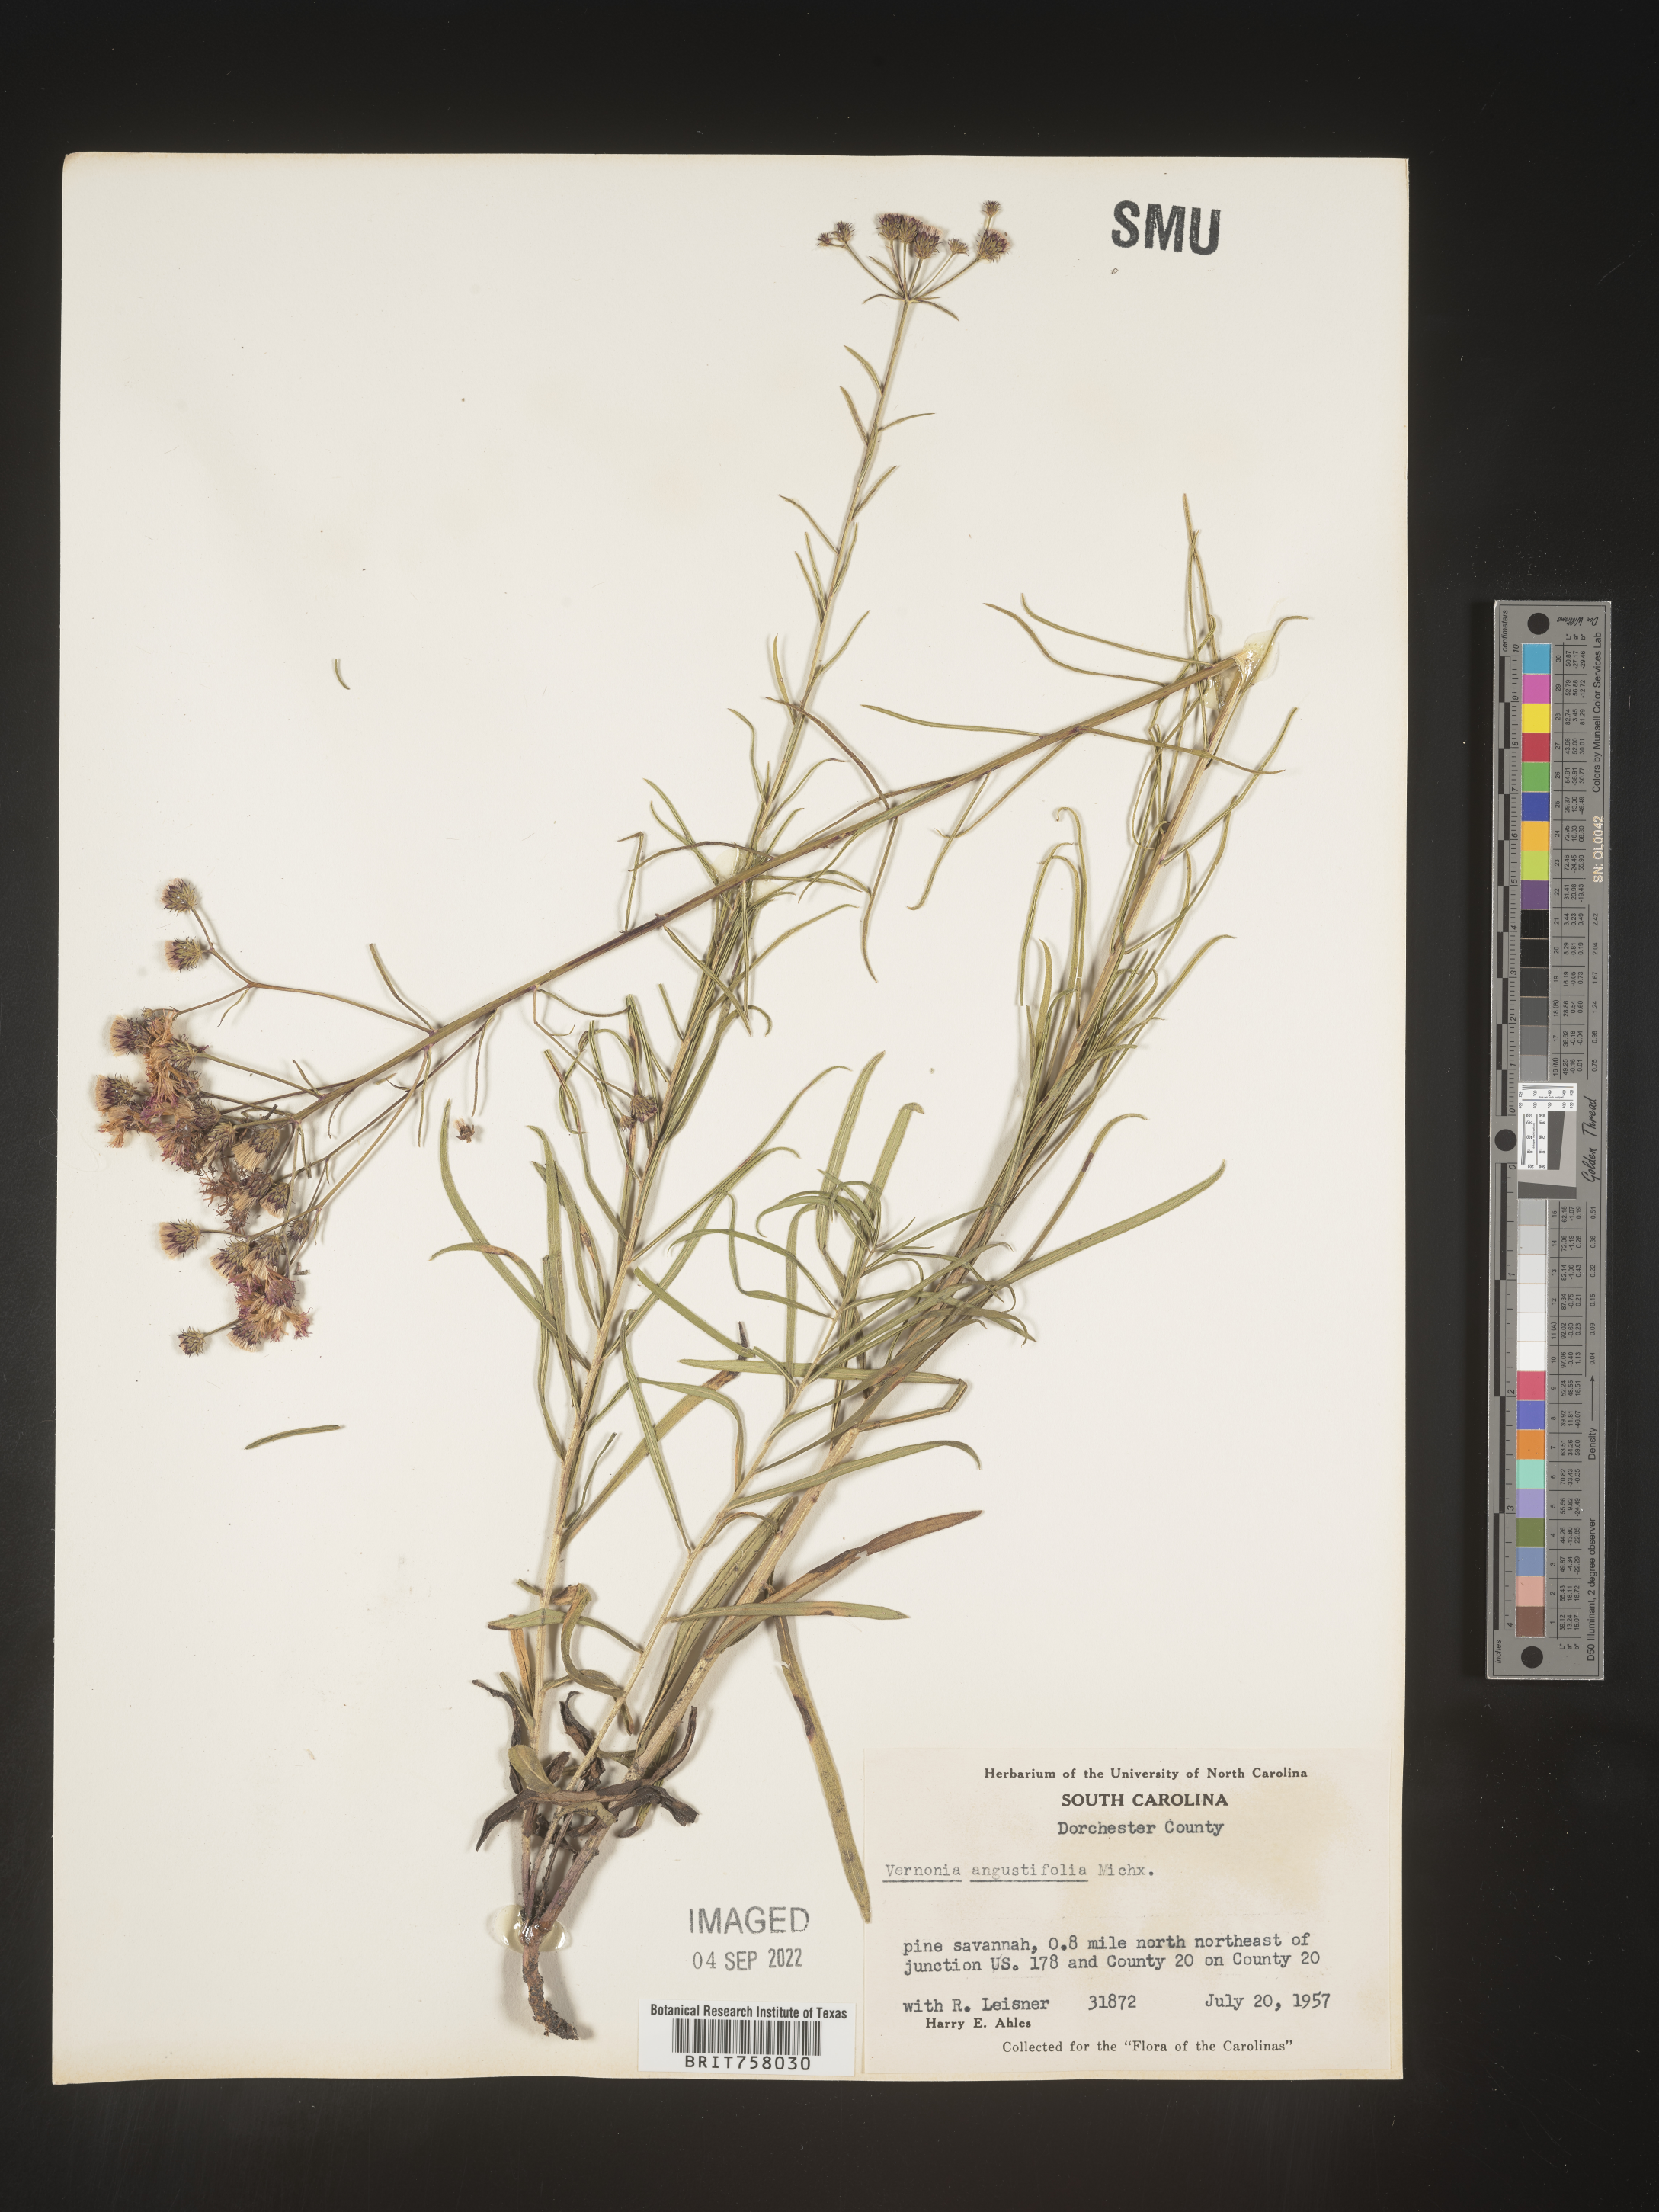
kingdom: Plantae
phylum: Tracheophyta
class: Magnoliopsida
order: Asterales
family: Asteraceae
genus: Vernonia
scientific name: Vernonia angustifolia
